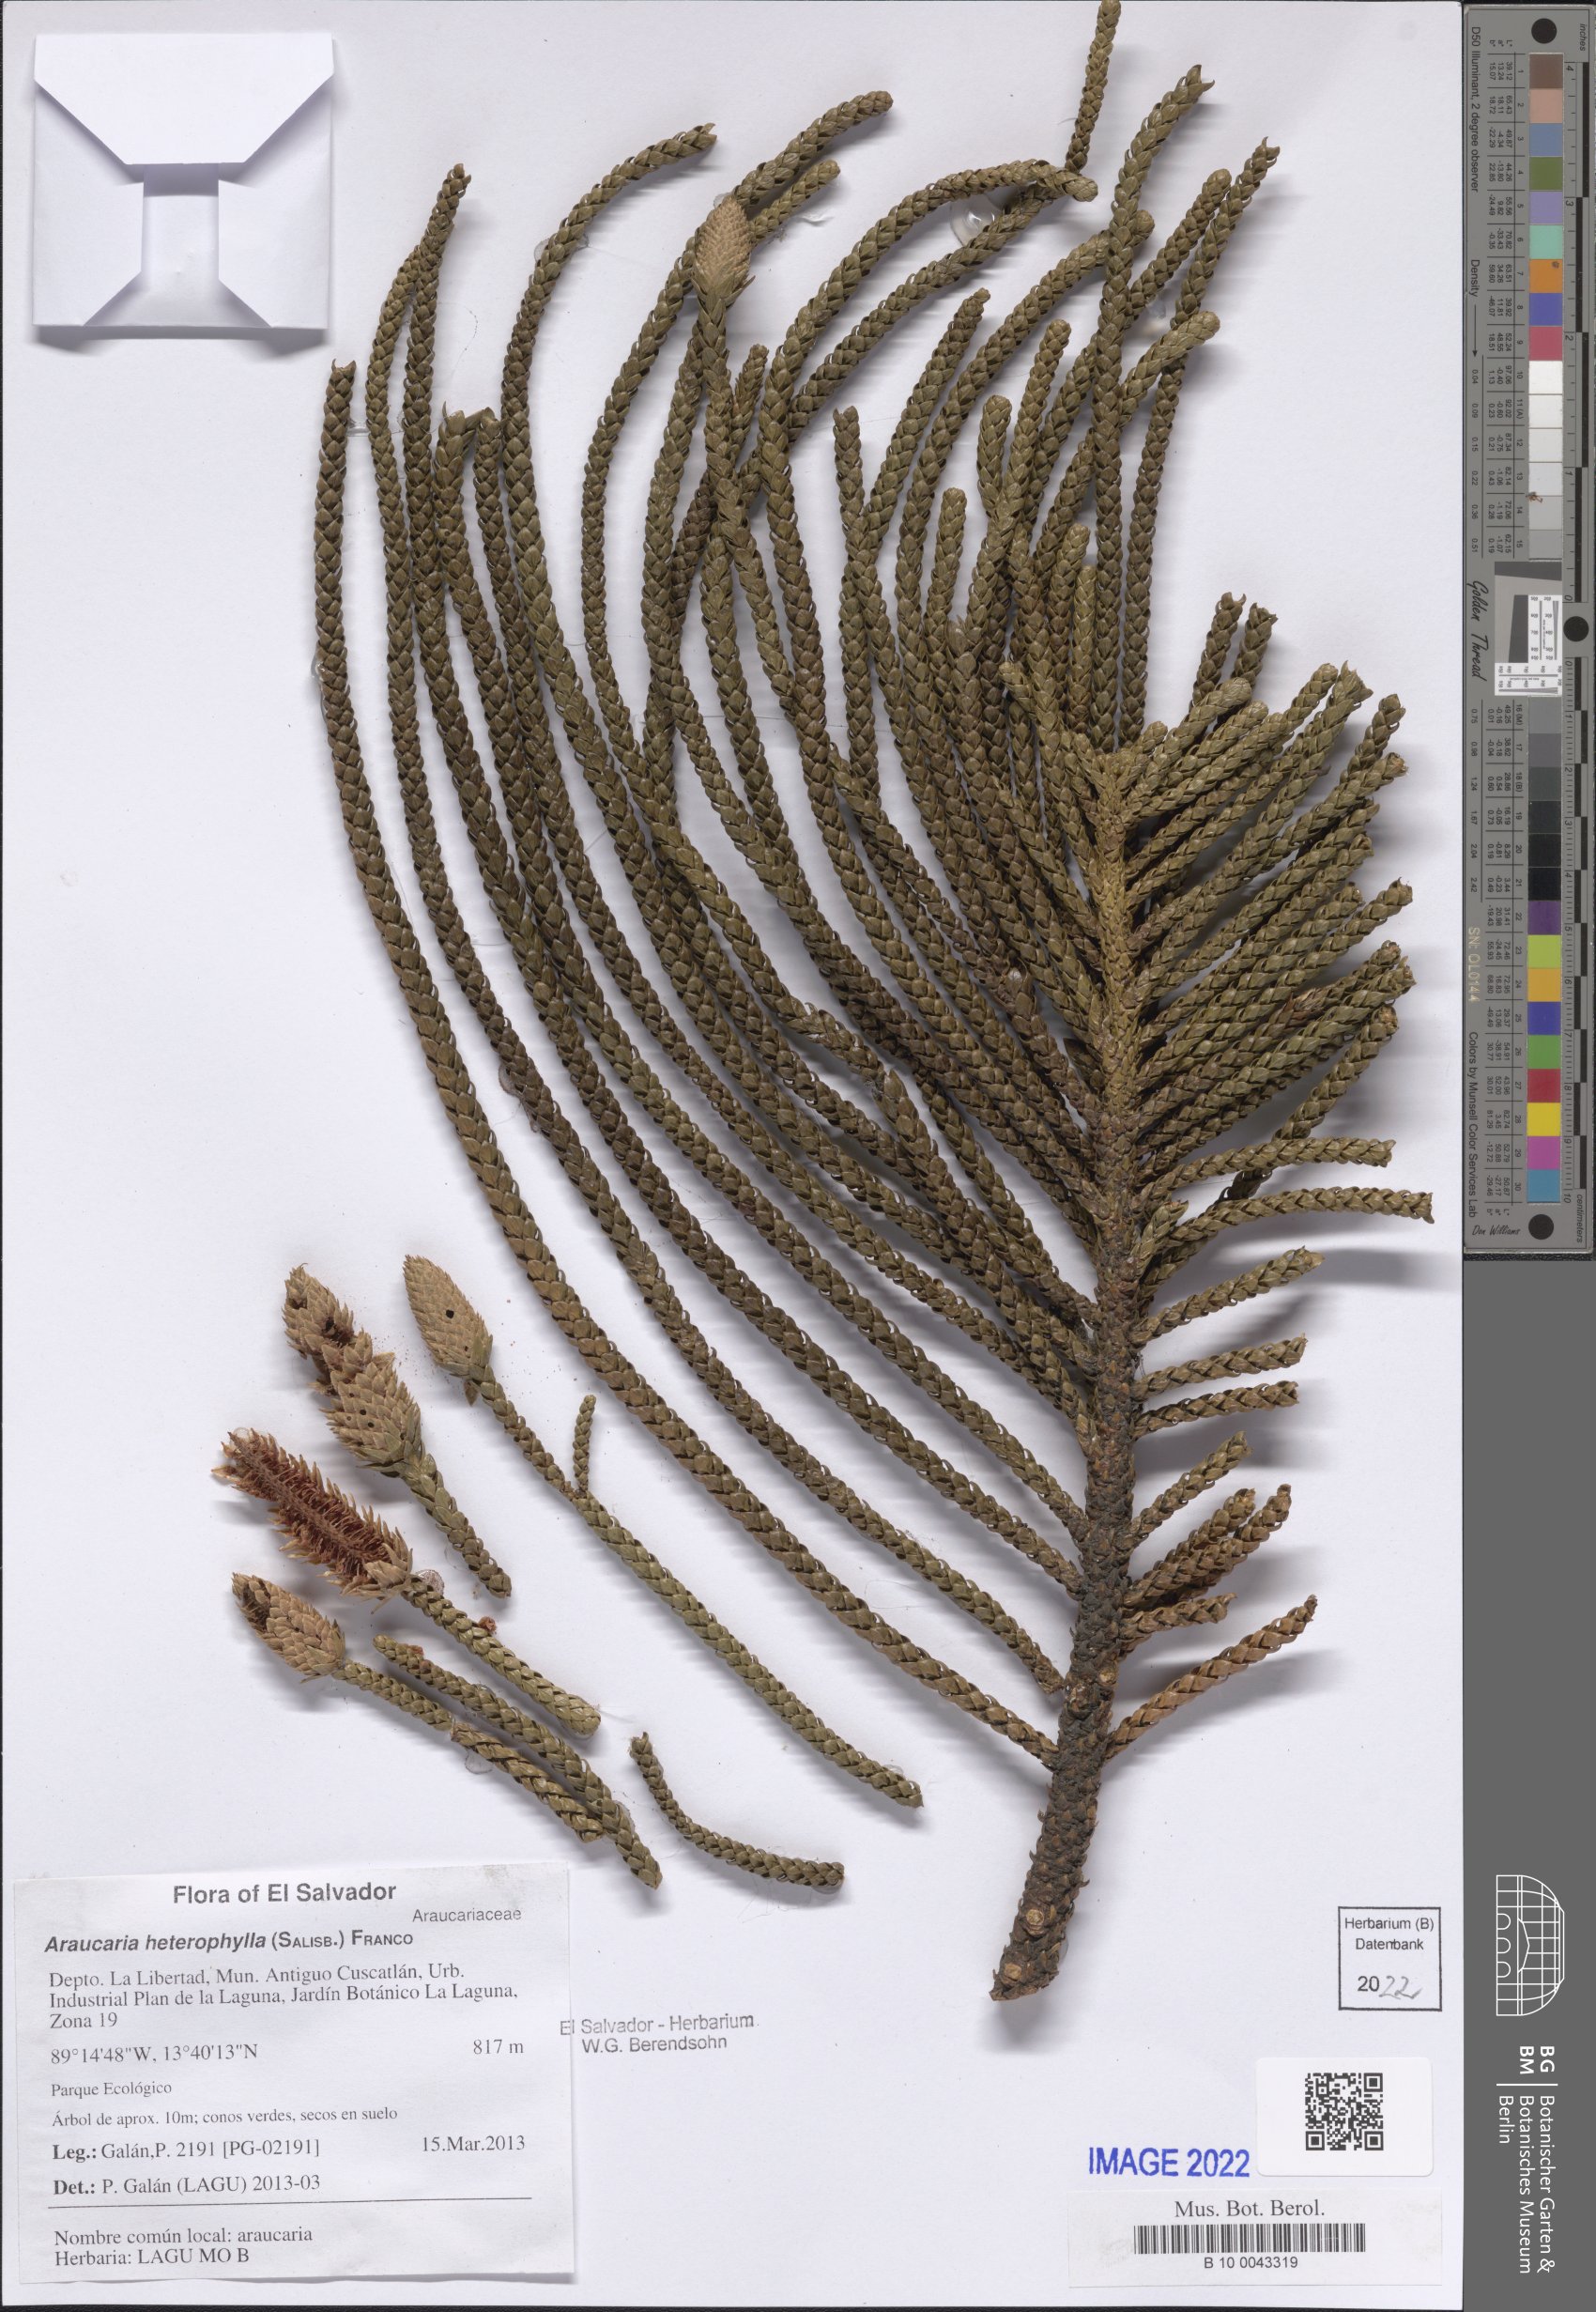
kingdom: Plantae
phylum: Tracheophyta
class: Pinopsida
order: Pinales
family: Araucariaceae
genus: Araucaria
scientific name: Araucaria heterophylla
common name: Norfolk island pine
